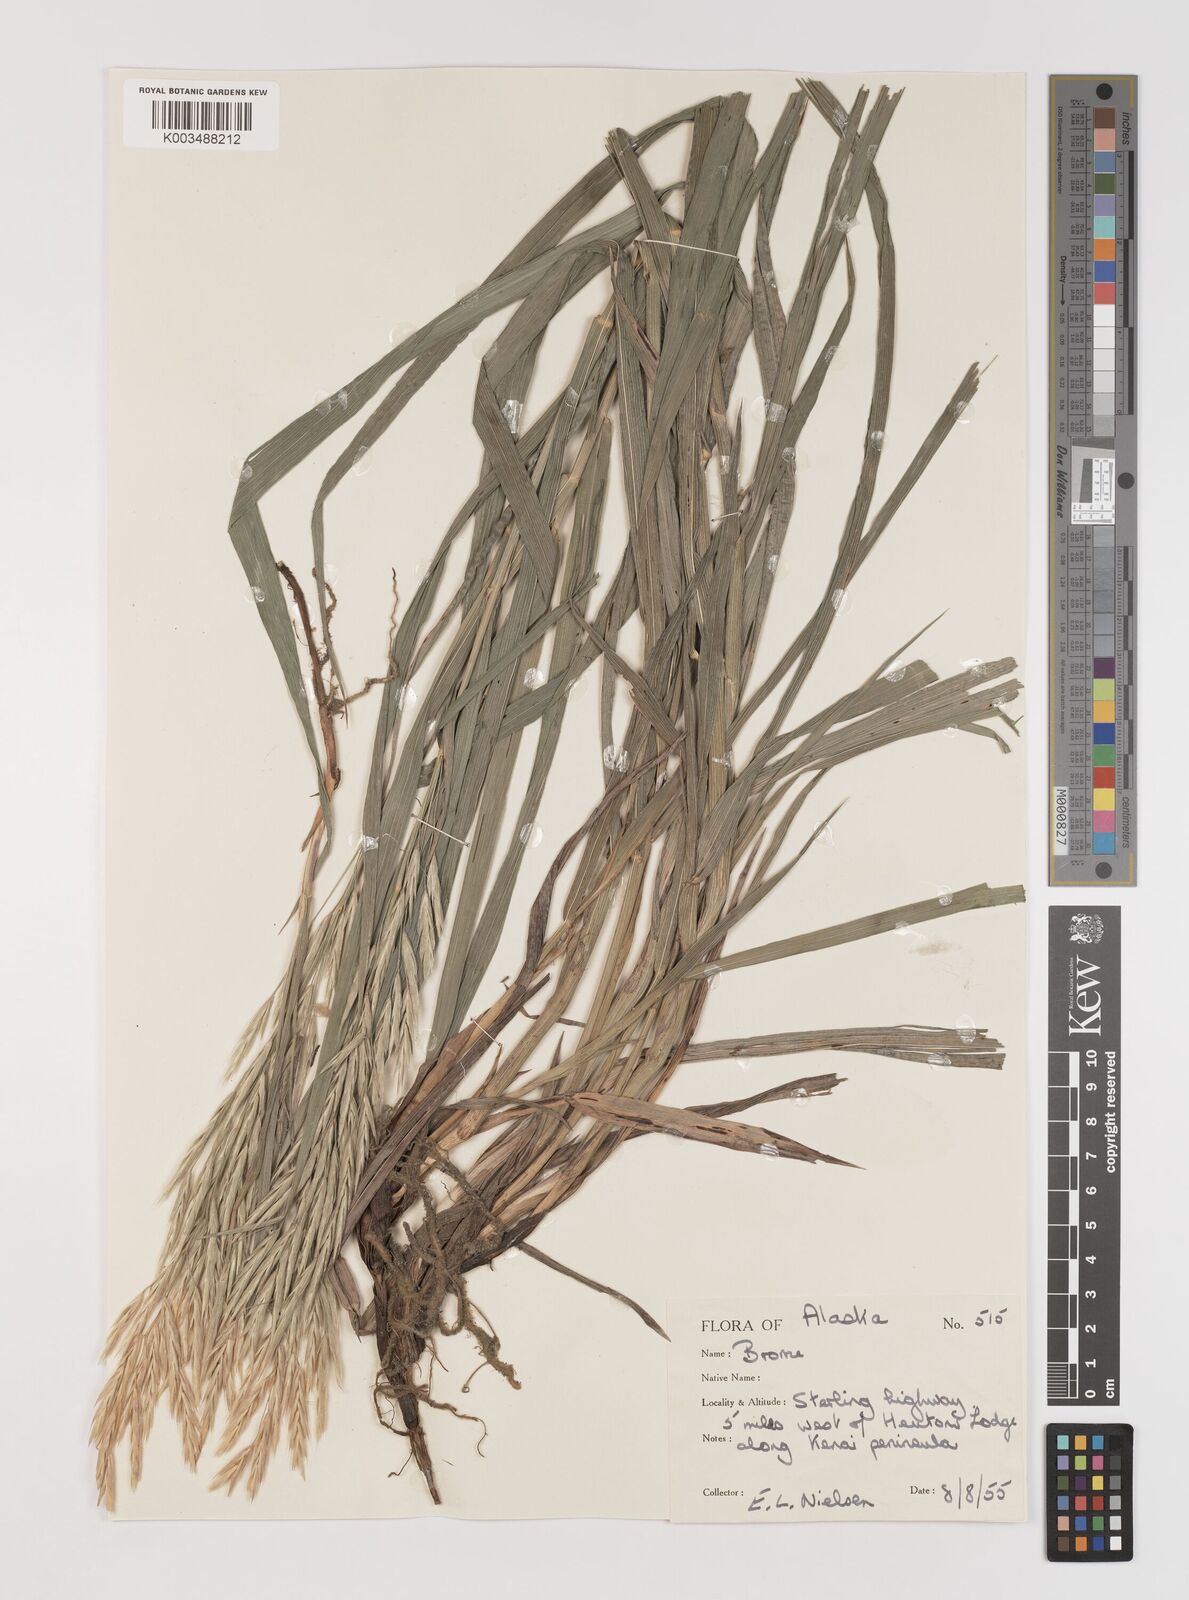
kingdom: Plantae
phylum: Tracheophyta
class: Liliopsida
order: Poales
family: Poaceae
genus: Bromus
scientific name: Bromus grandis
